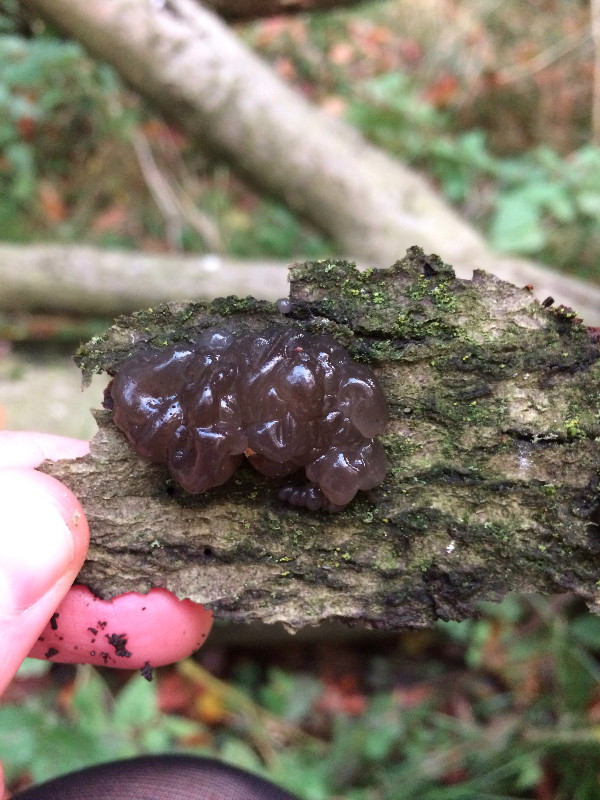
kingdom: Fungi
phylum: Basidiomycota
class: Agaricomycetes
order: Auriculariales
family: Auriculariaceae
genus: Exidia
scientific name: Exidia nigricans
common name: almindelig bævretop
